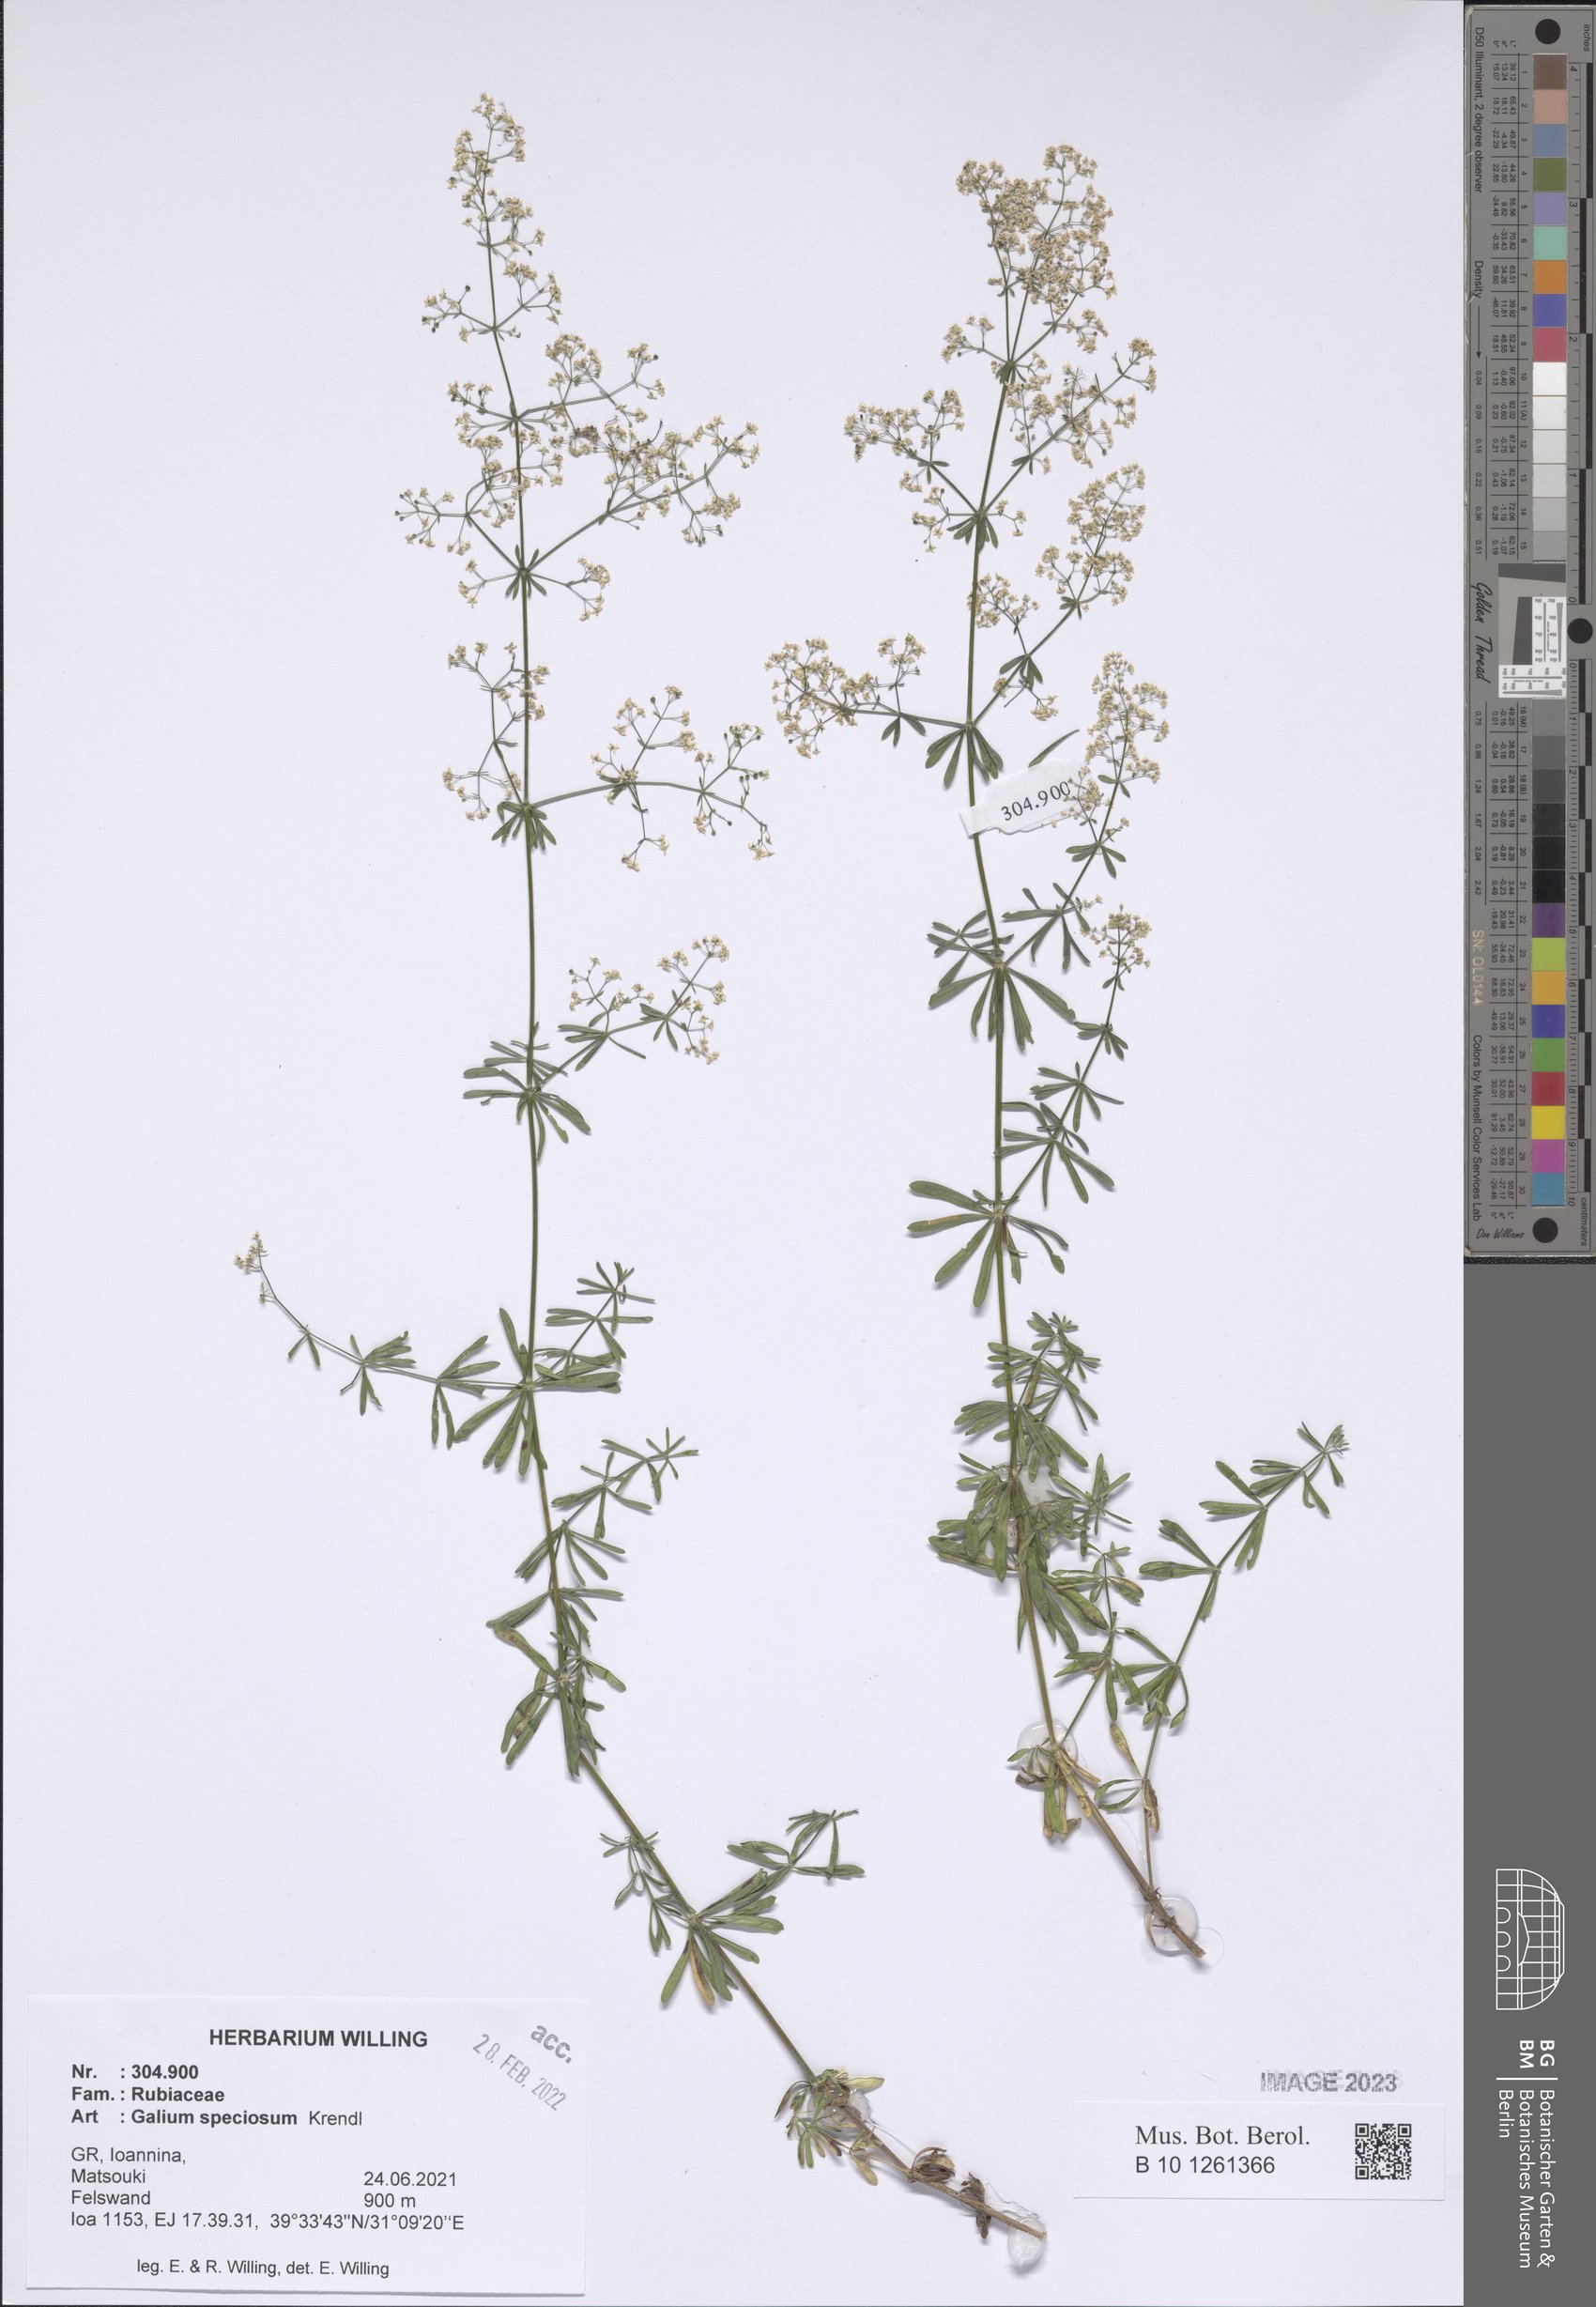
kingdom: Plantae
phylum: Tracheophyta
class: Magnoliopsida
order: Gentianales
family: Rubiaceae
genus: Galium
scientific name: Galium speciosum
